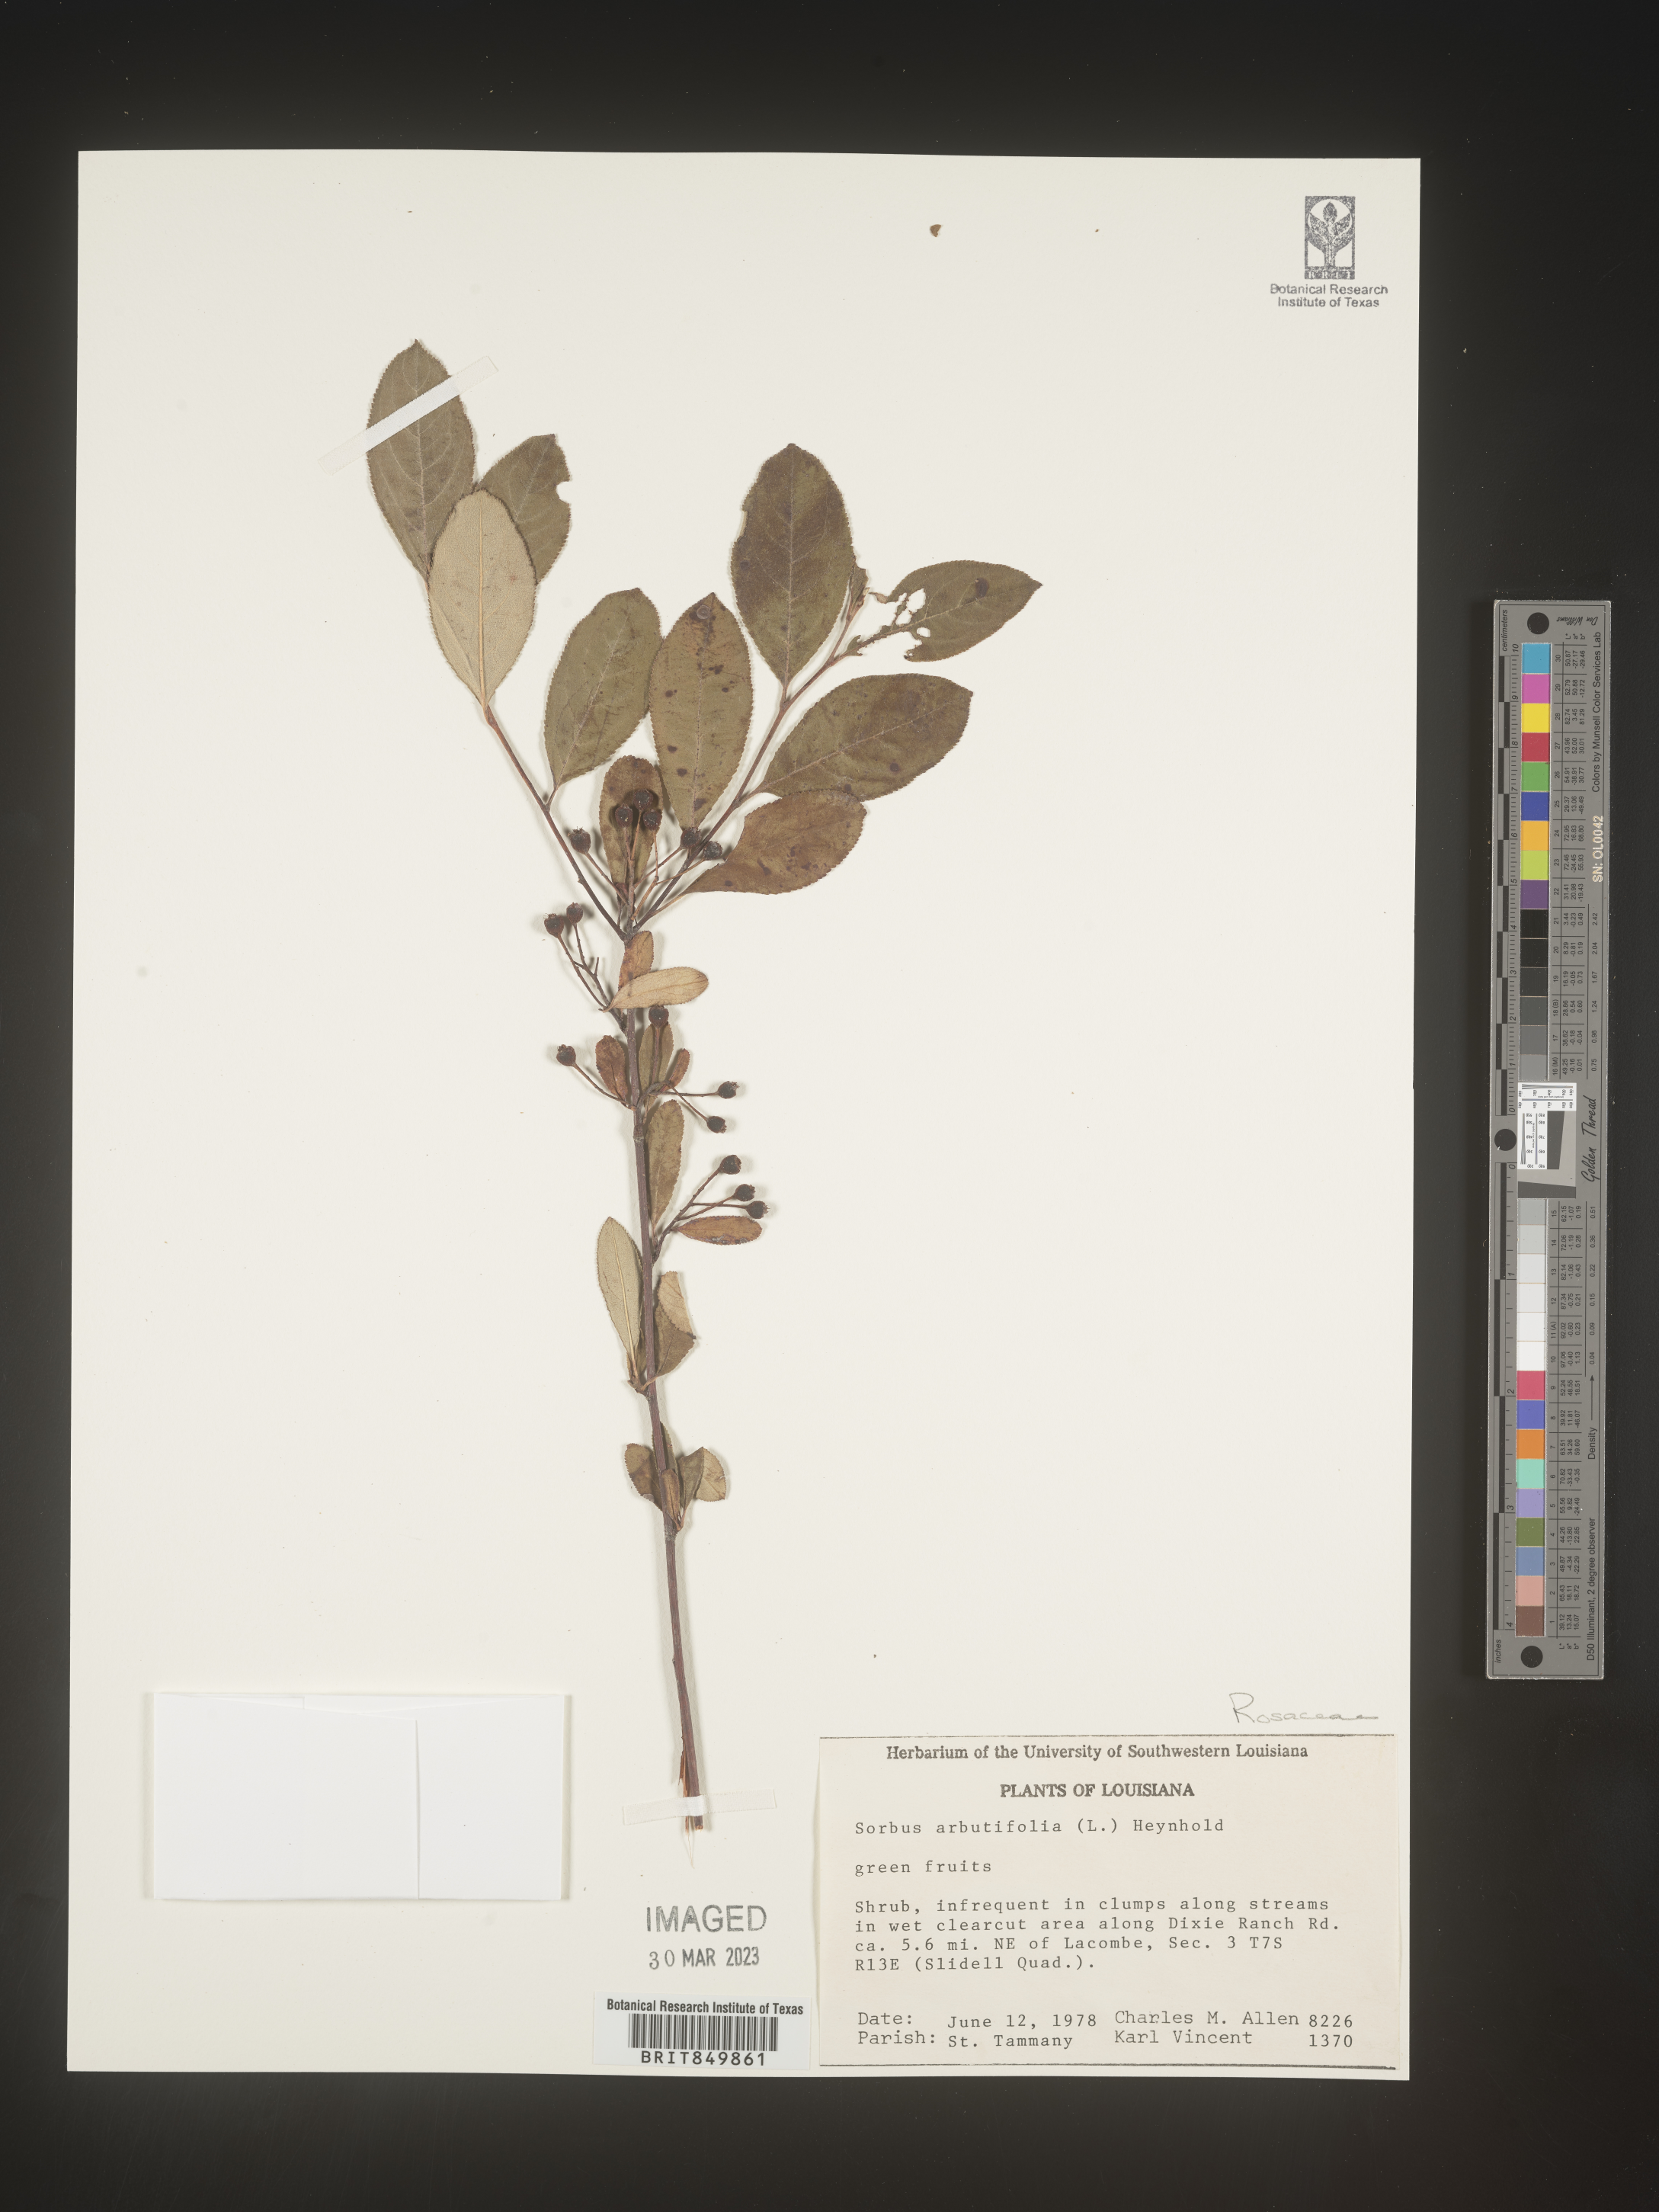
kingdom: Plantae
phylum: Tracheophyta
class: Magnoliopsida
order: Rosales
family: Rosaceae
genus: Sorbus
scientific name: Sorbus
